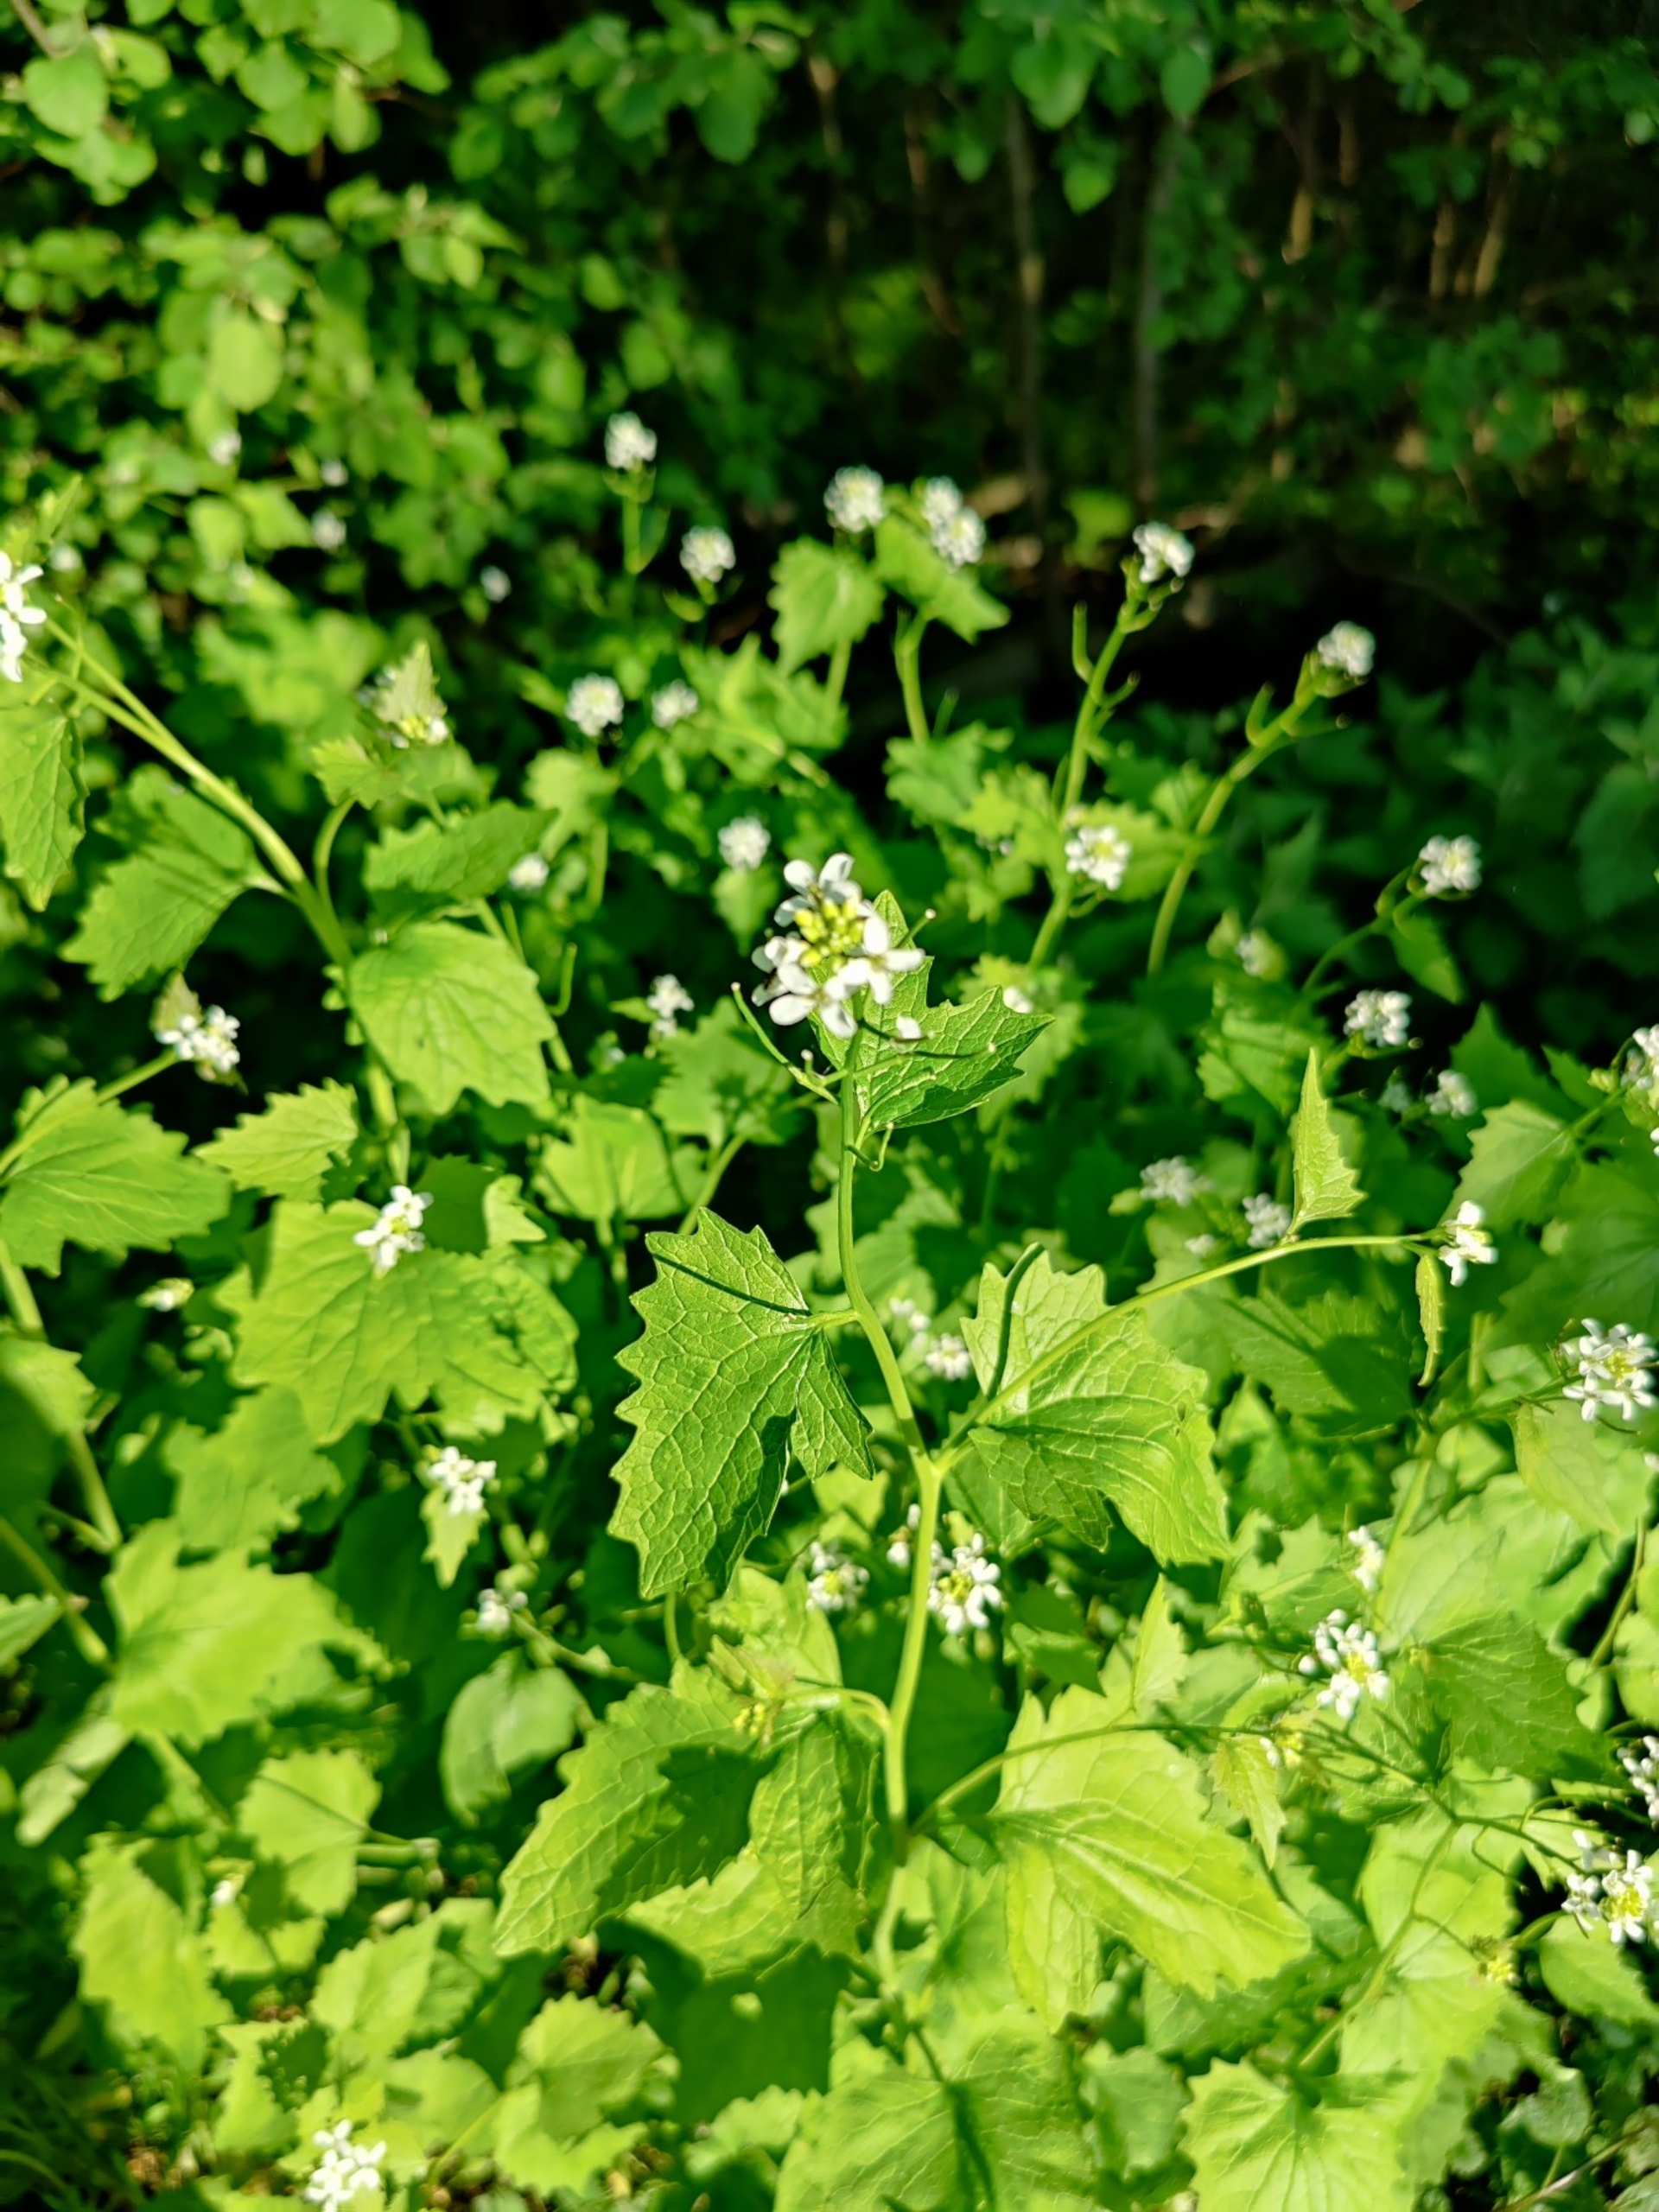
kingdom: Plantae
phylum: Tracheophyta
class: Magnoliopsida
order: Brassicales
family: Brassicaceae
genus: Alliaria
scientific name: Alliaria petiolata
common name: Løgkarse
